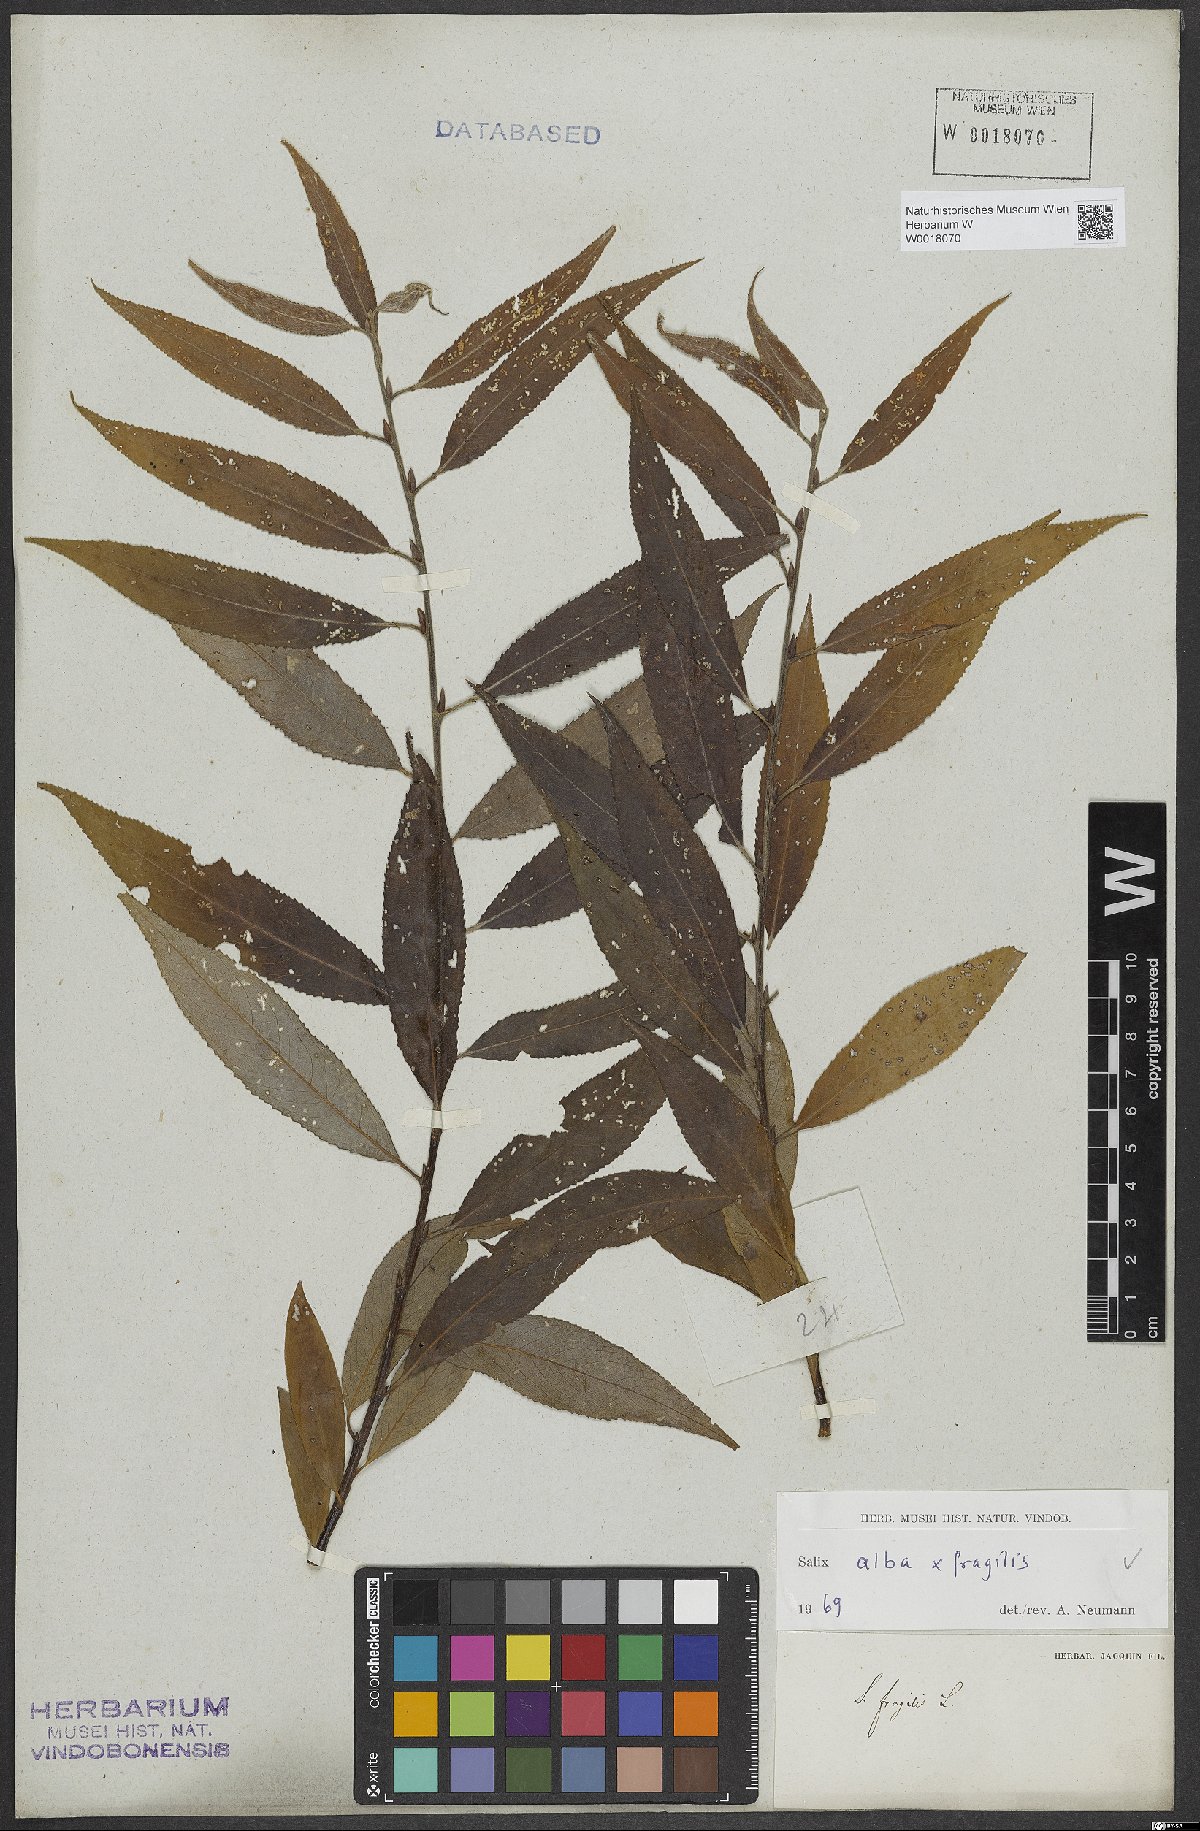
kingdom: Plantae
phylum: Tracheophyta
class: Magnoliopsida
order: Malpighiales
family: Salicaceae
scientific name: Salicaceae
